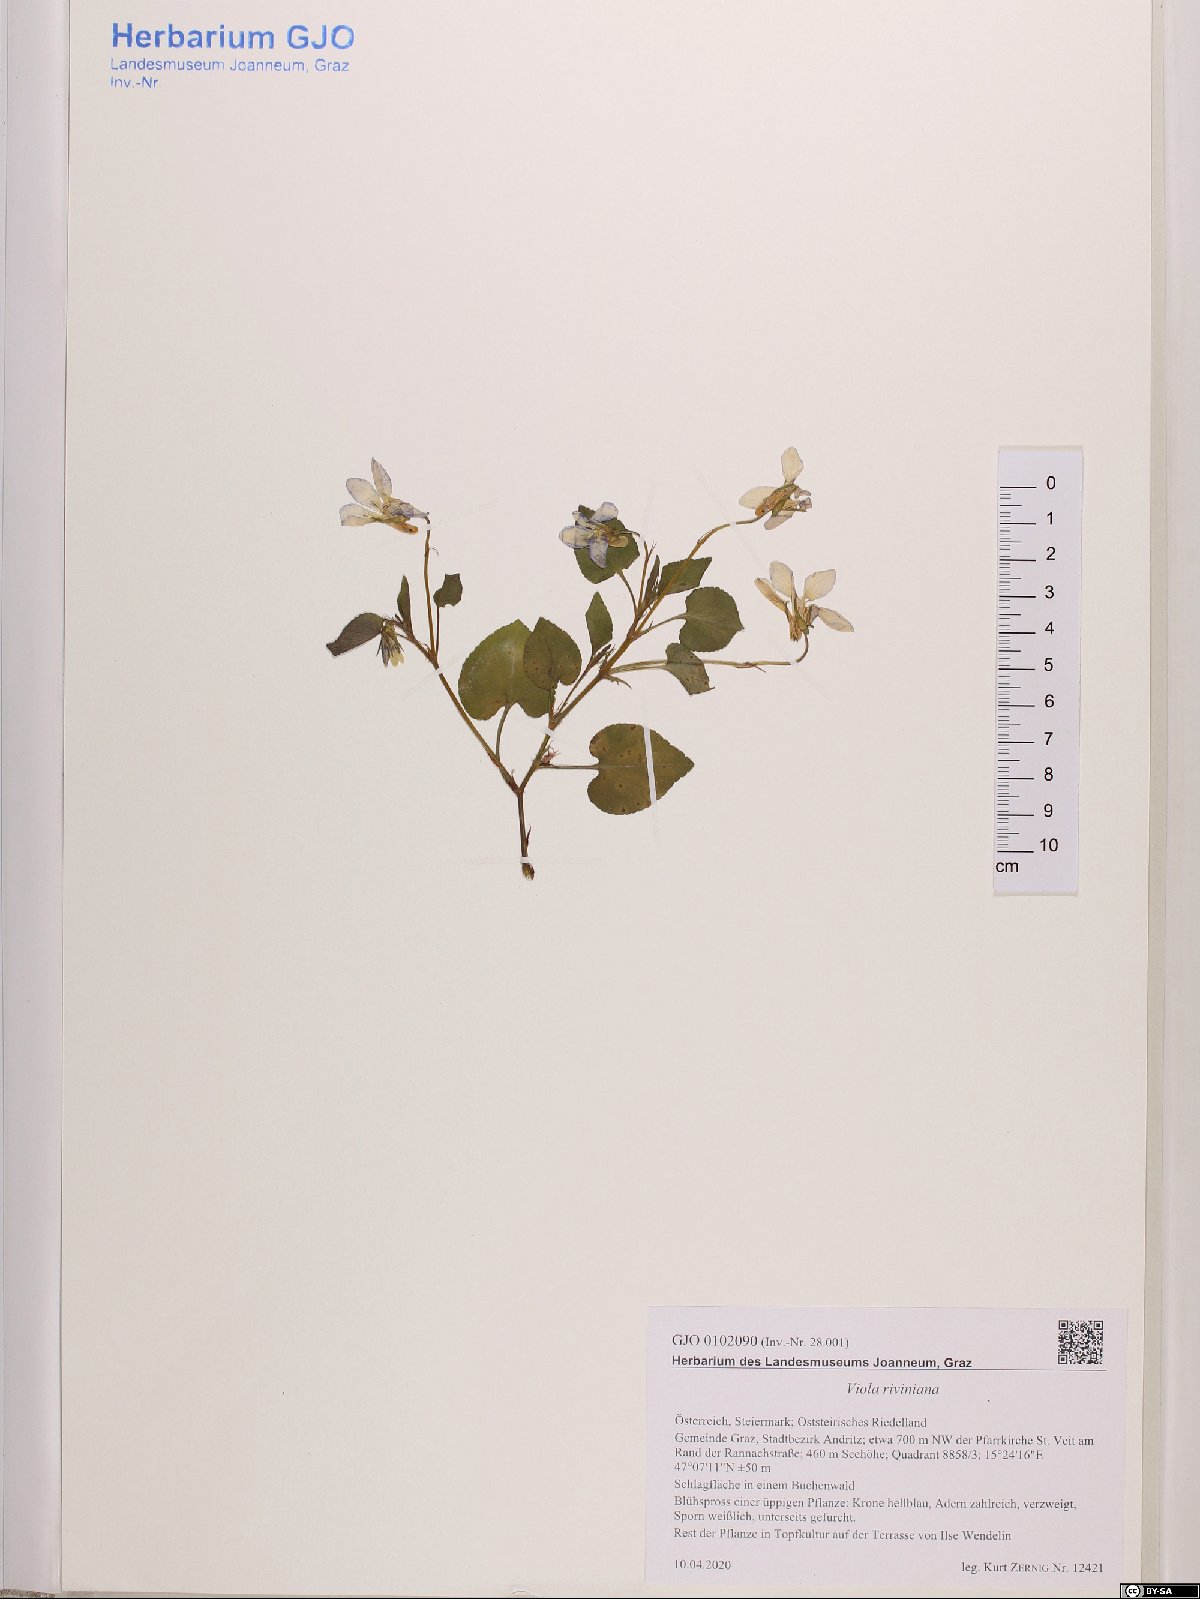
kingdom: Plantae
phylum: Tracheophyta
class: Magnoliopsida
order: Malpighiales
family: Violaceae
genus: Viola
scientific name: Viola riviniana
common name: Common dog-violet
